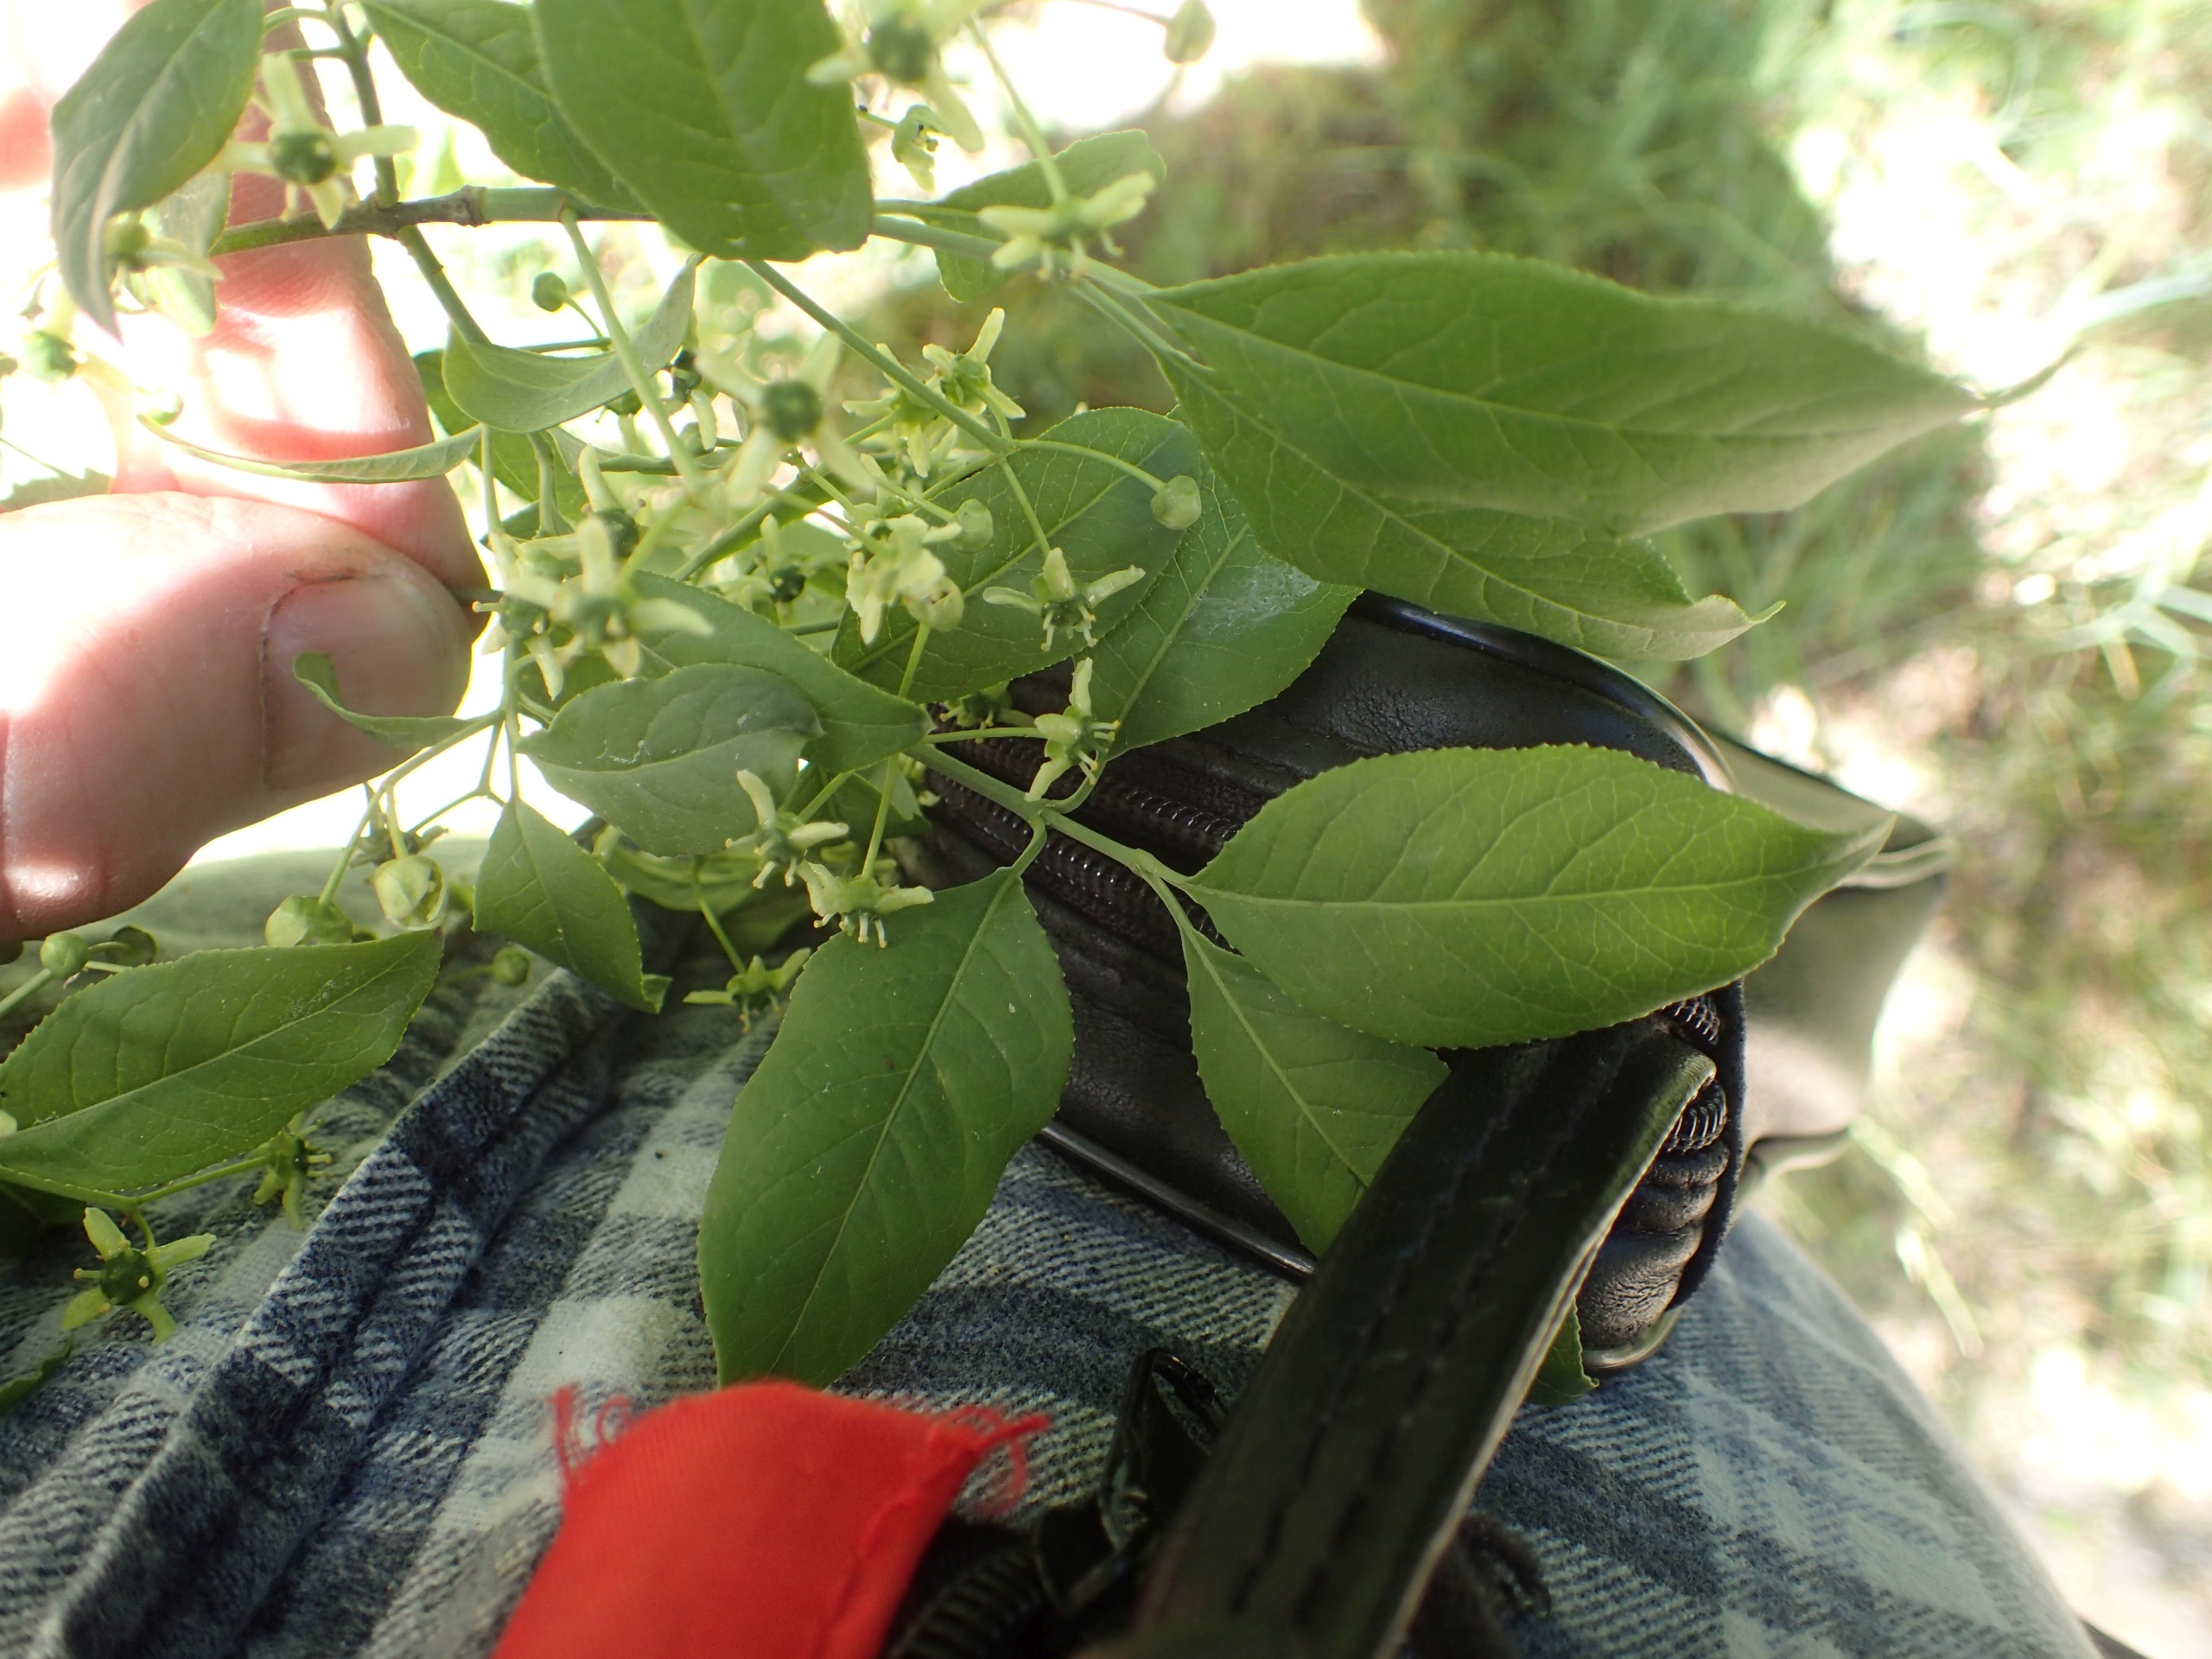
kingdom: Plantae
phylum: Tracheophyta
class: Magnoliopsida
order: Celastrales
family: Celastraceae
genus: Euonymus
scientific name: Euonymus europaeus
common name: Benved
